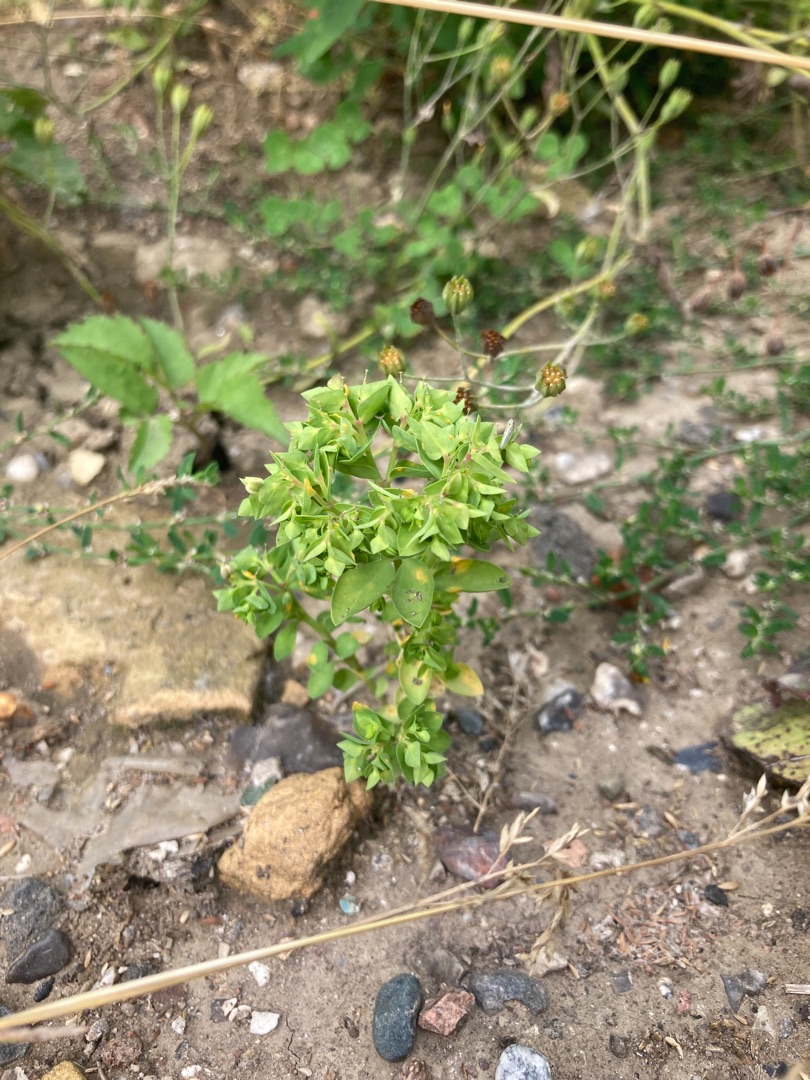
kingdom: Plantae
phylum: Tracheophyta
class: Magnoliopsida
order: Malpighiales
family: Euphorbiaceae
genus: Euphorbia
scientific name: Euphorbia peplus
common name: Gaffel-vortemælk
